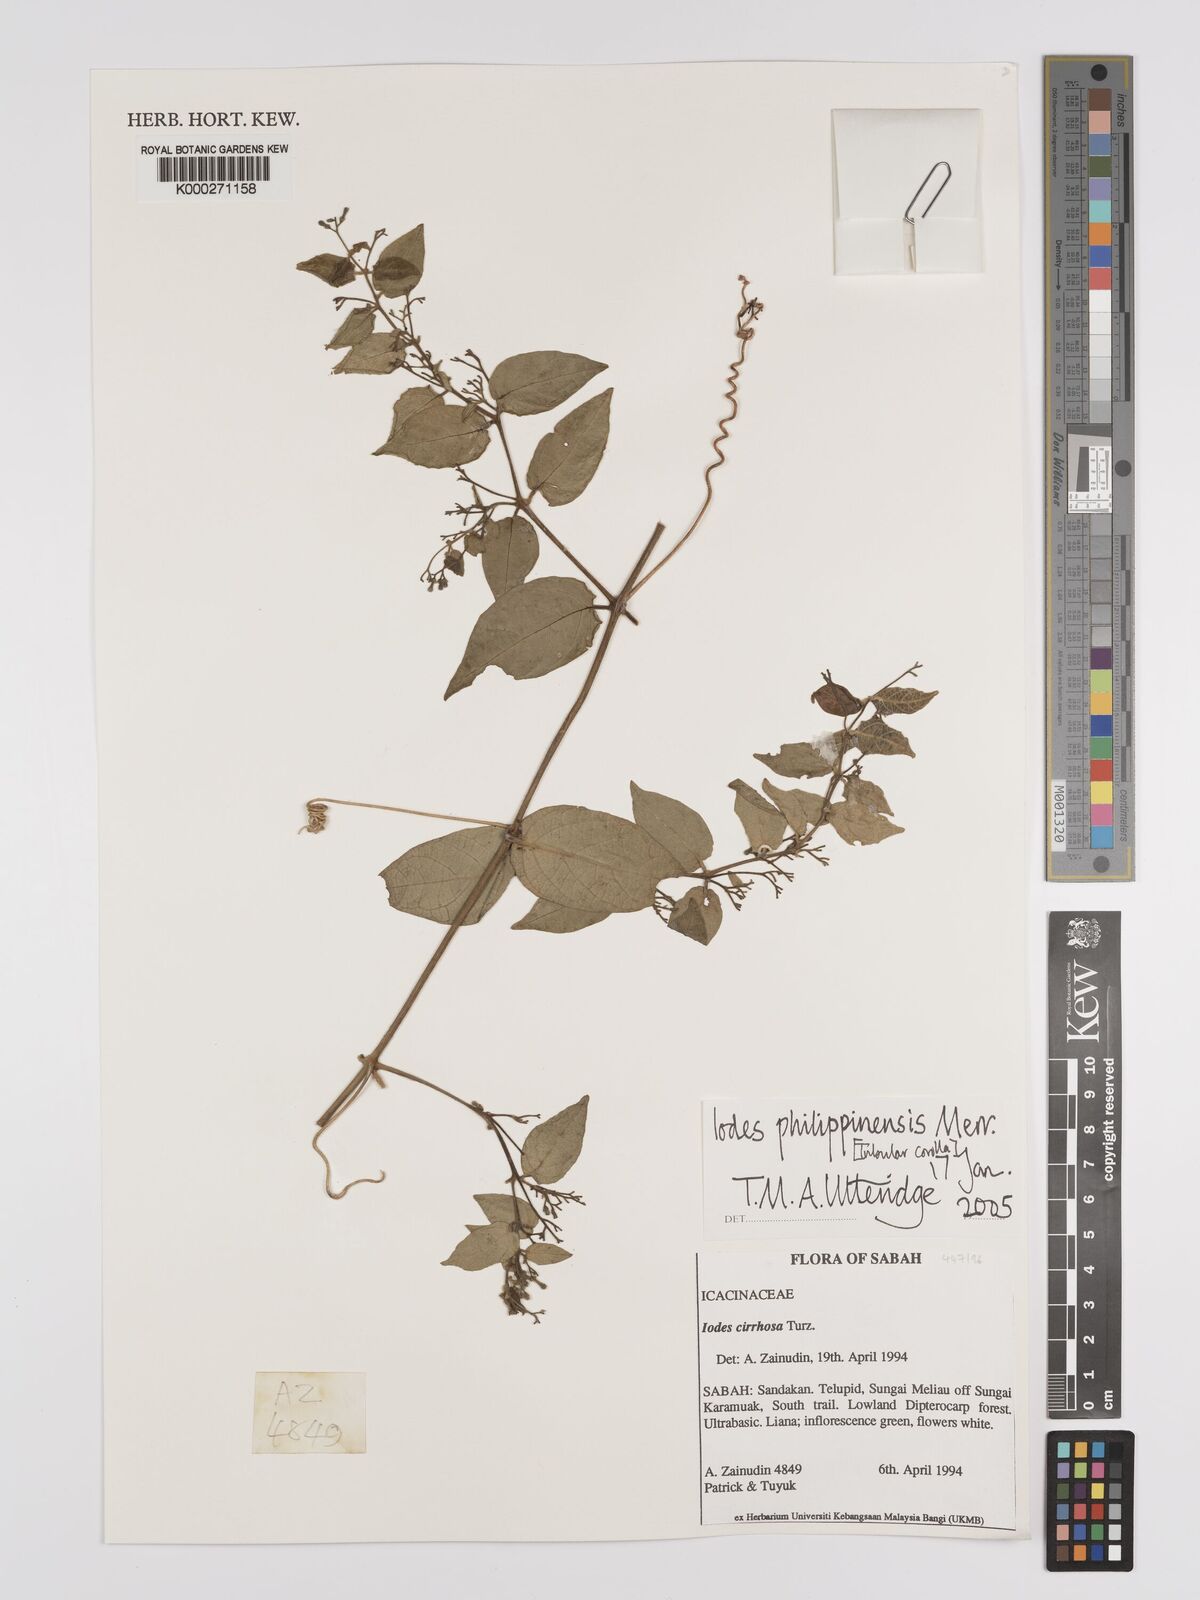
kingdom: Plantae
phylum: Tracheophyta
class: Magnoliopsida
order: Icacinales
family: Icacinaceae
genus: Iodes
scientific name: Iodes philippinensis
